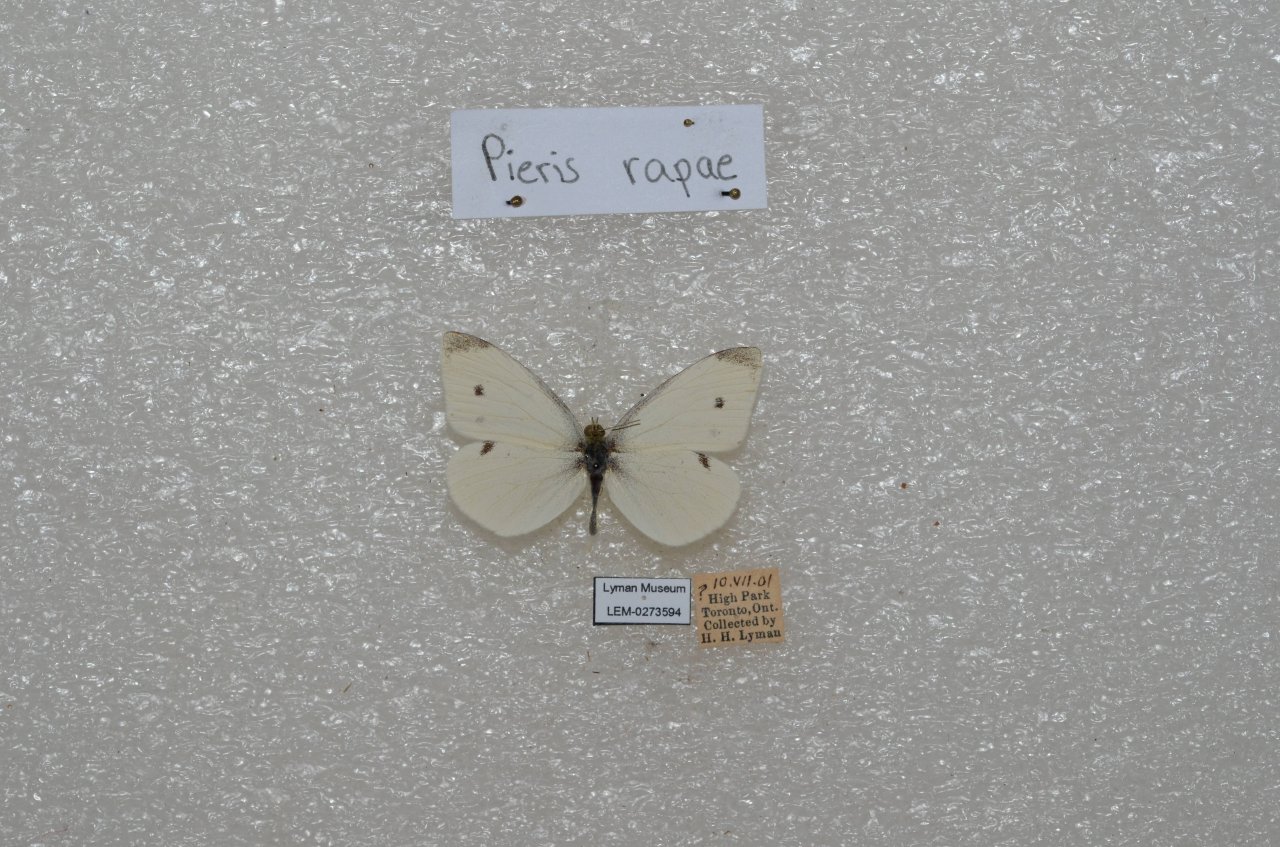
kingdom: Animalia
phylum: Arthropoda
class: Insecta
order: Lepidoptera
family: Pieridae
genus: Pieris
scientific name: Pieris rapae
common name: Cabbage White
